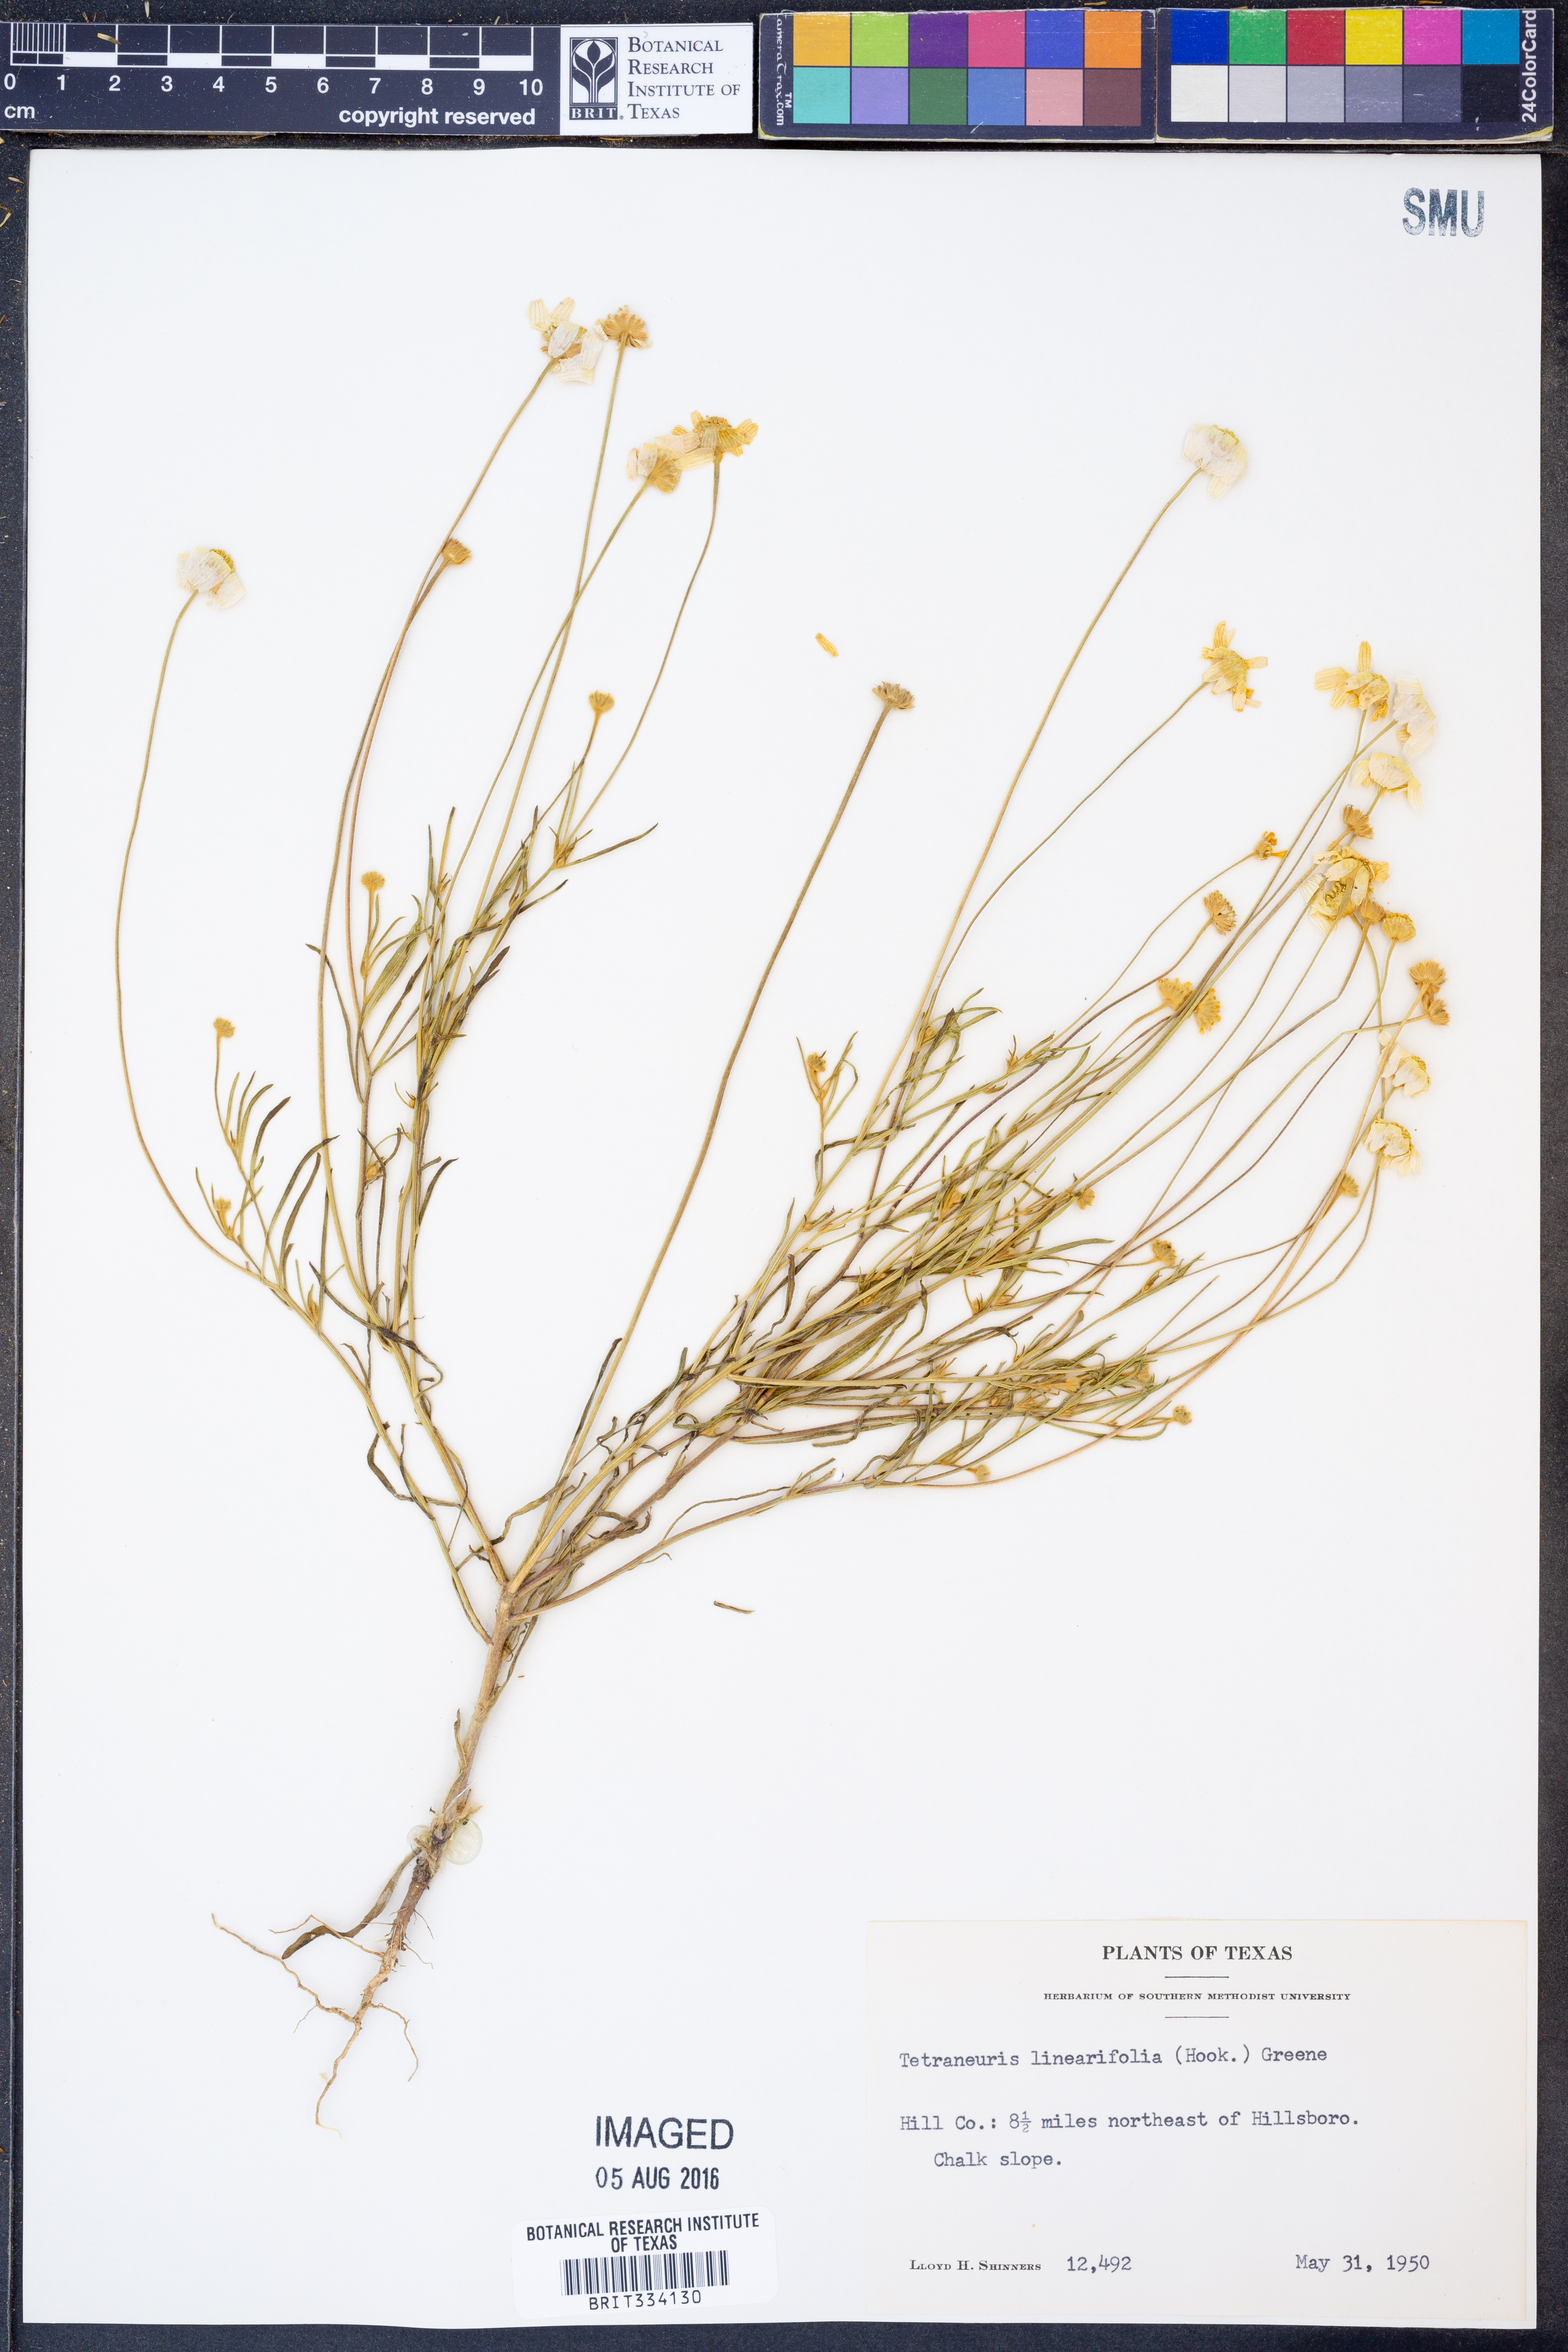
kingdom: Plantae
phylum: Tracheophyta
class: Magnoliopsida
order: Asterales
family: Asteraceae
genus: Tetraneuris
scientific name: Tetraneuris linearifolia
